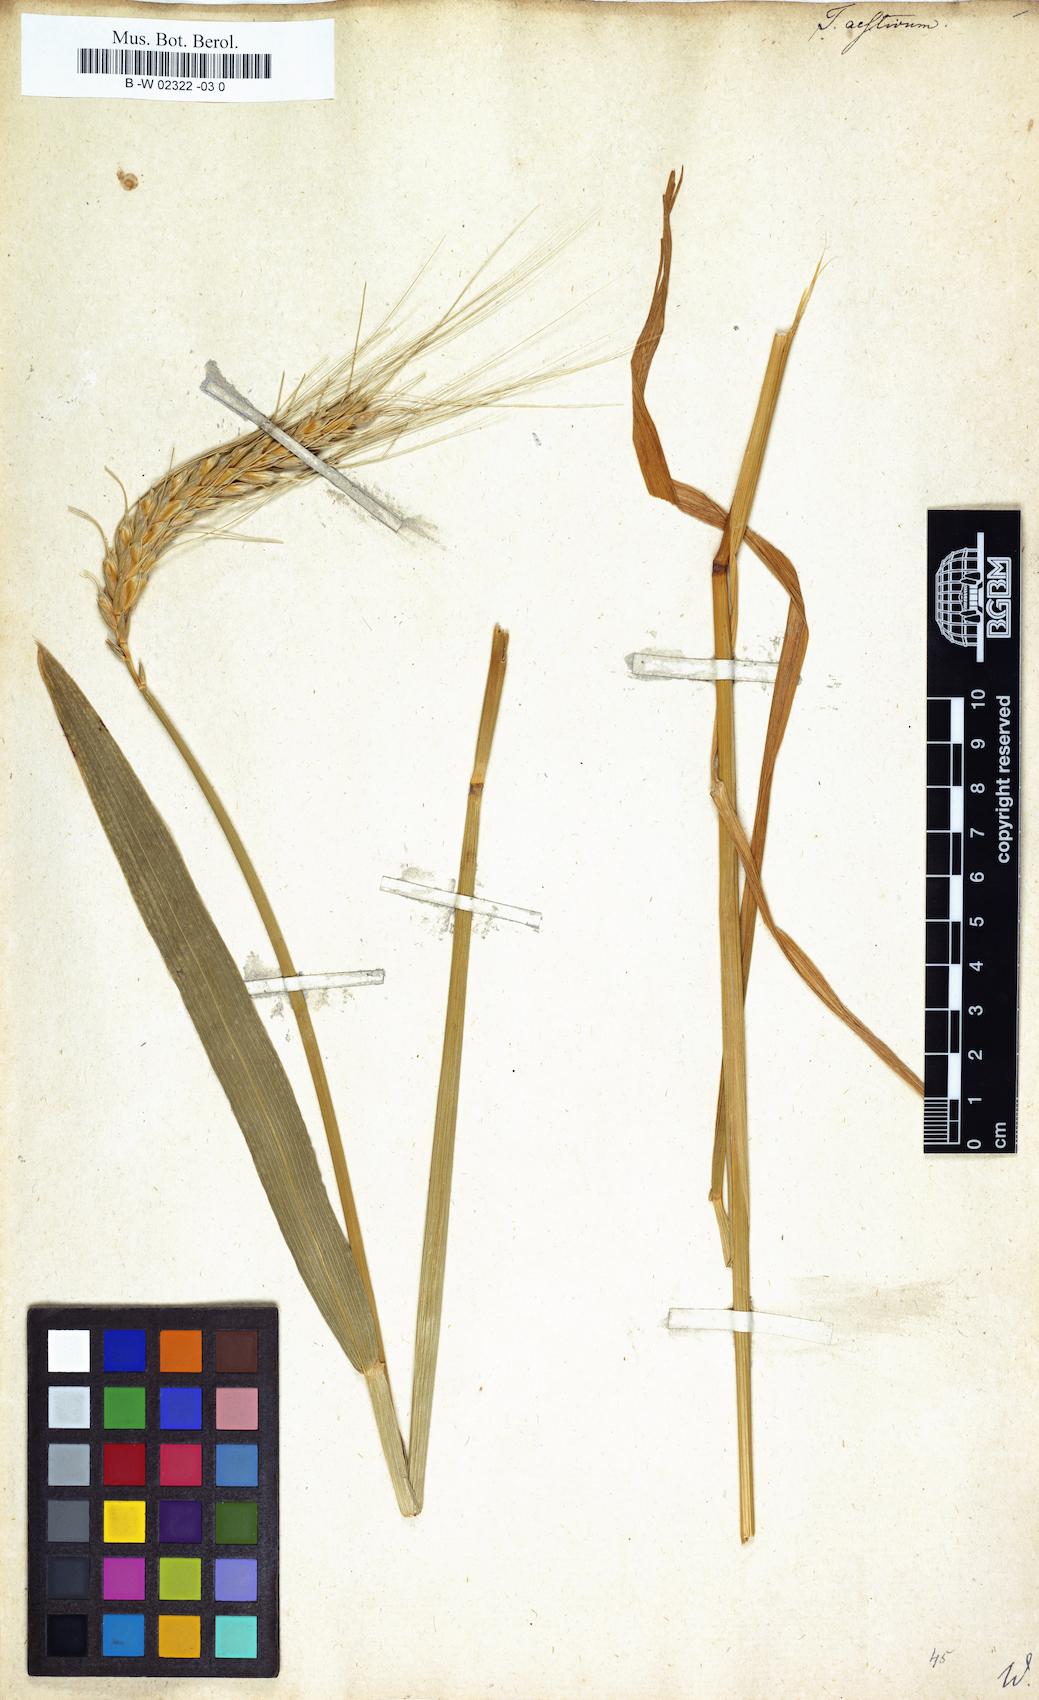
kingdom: Plantae
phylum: Tracheophyta
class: Liliopsida
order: Poales
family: Poaceae
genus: Triticum
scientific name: Triticum aestivum
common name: Common wheat
